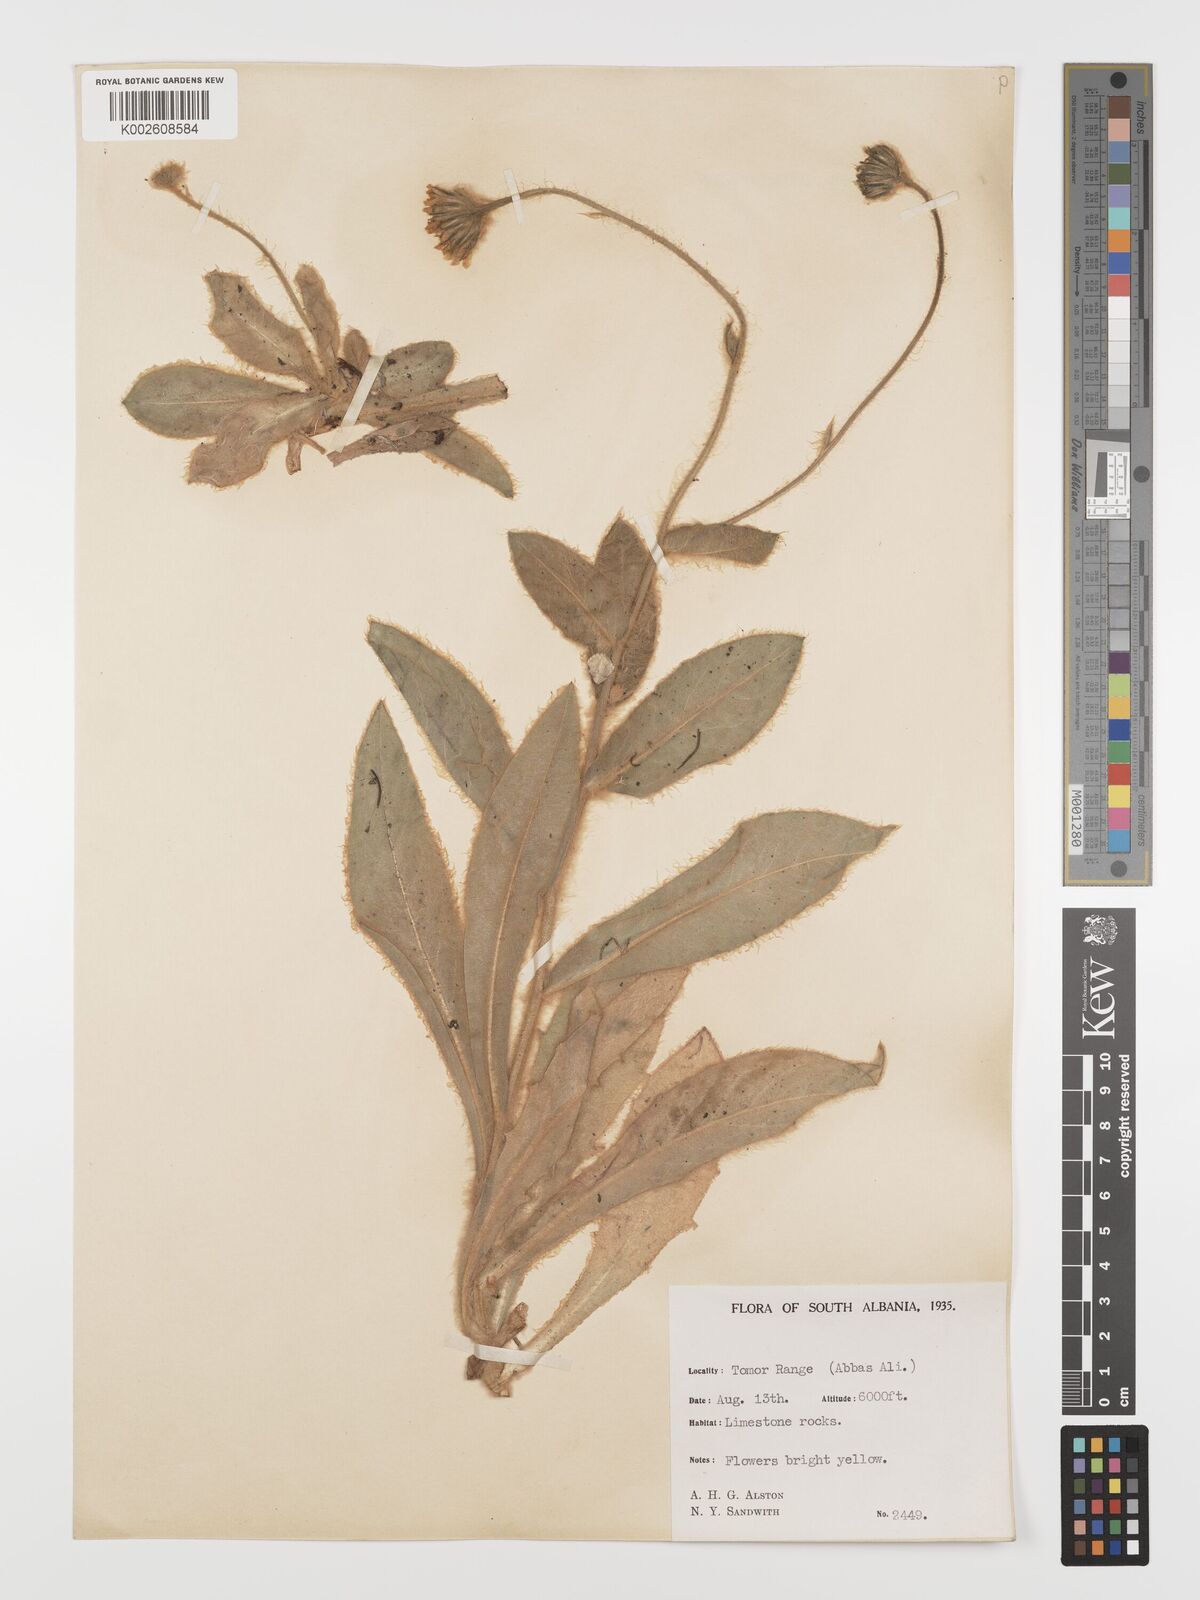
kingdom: Plantae
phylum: Tracheophyta
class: Magnoliopsida
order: Asterales
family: Asteraceae
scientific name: Asteraceae
